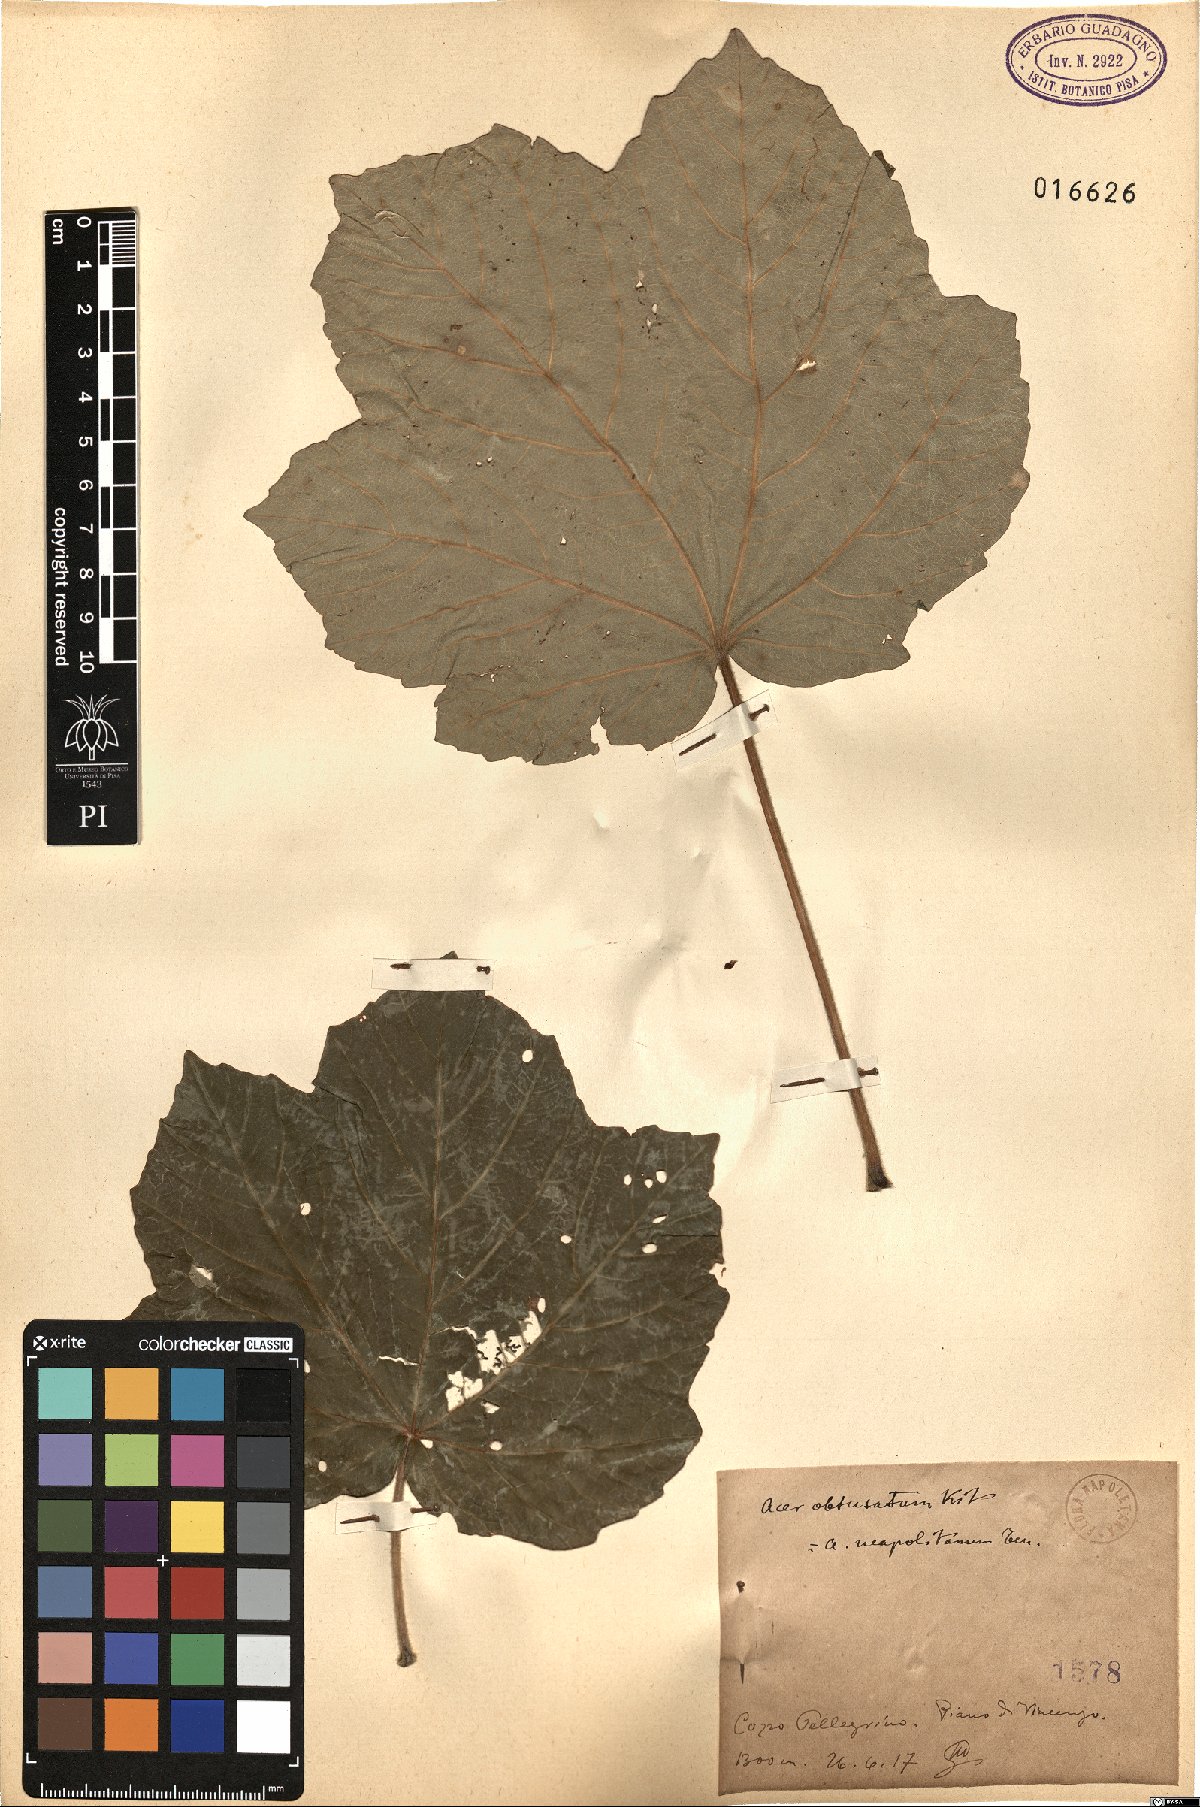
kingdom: Plantae
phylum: Tracheophyta
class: Magnoliopsida
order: Sapindales
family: Sapindaceae
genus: Acer
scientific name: Acer obtusatum
